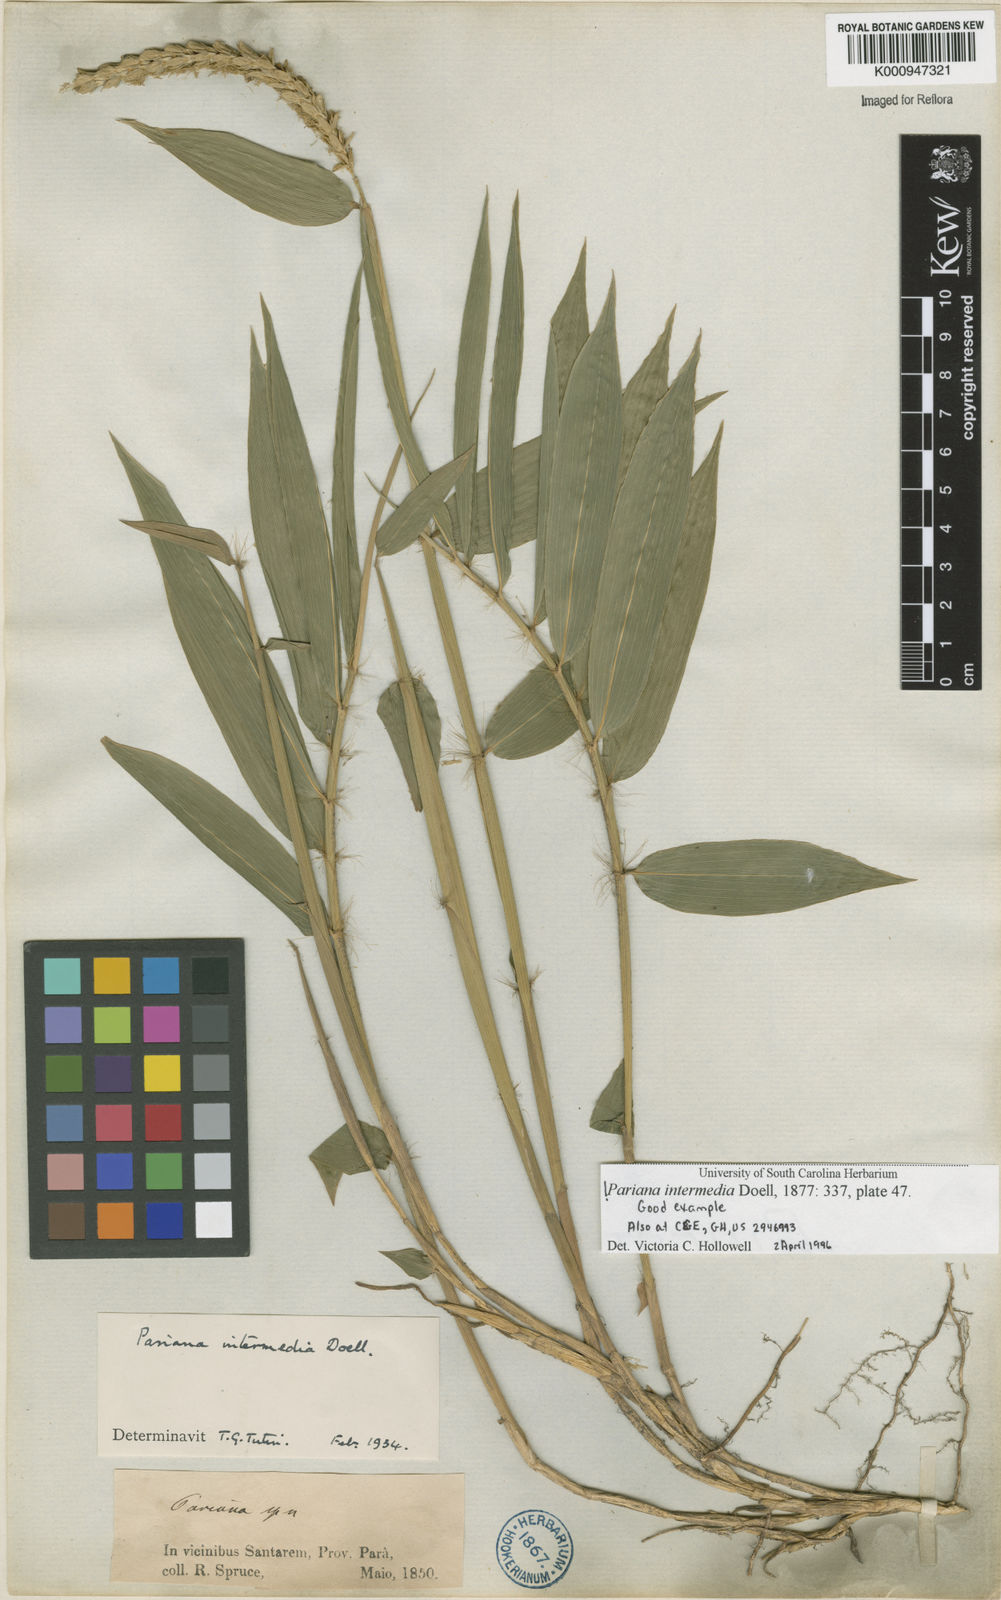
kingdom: Plantae
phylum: Tracheophyta
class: Liliopsida
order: Poales
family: Poaceae
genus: Pariana
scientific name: Pariana
